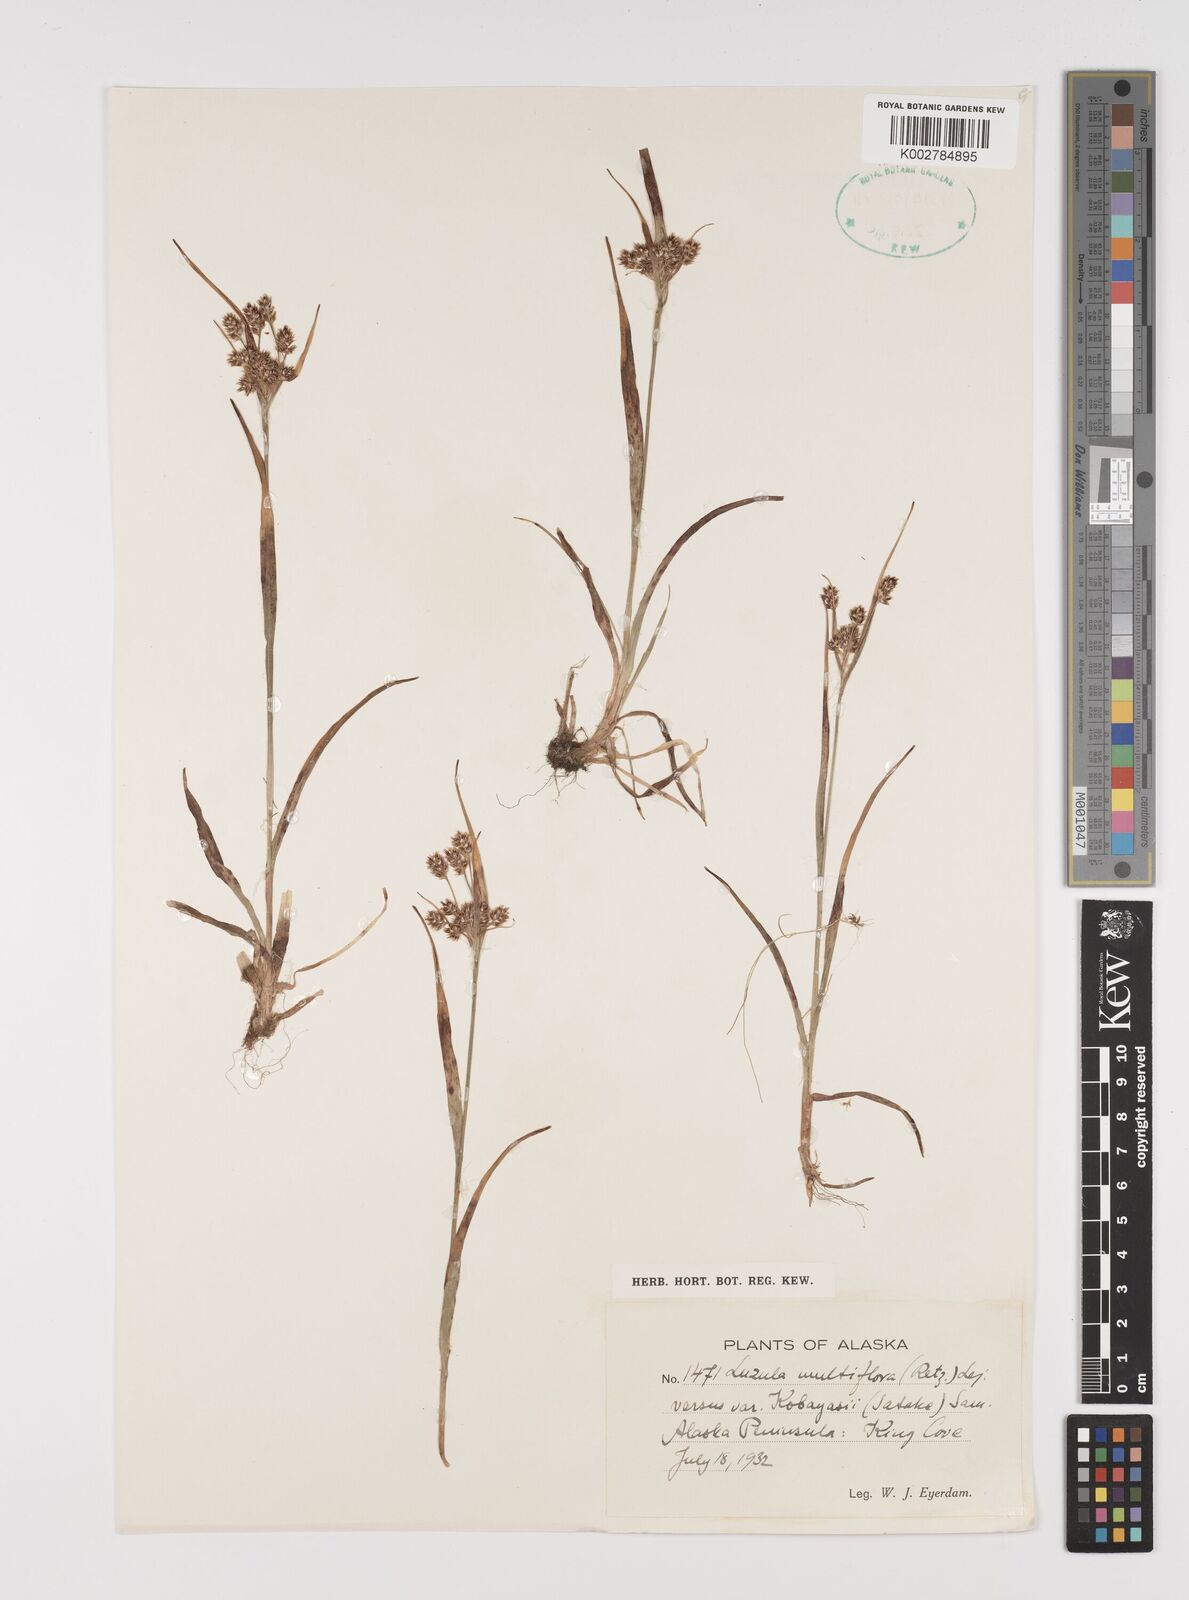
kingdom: Plantae
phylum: Tracheophyta
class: Liliopsida
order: Poales
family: Juncaceae
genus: Luzula
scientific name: Luzula kobayasii
